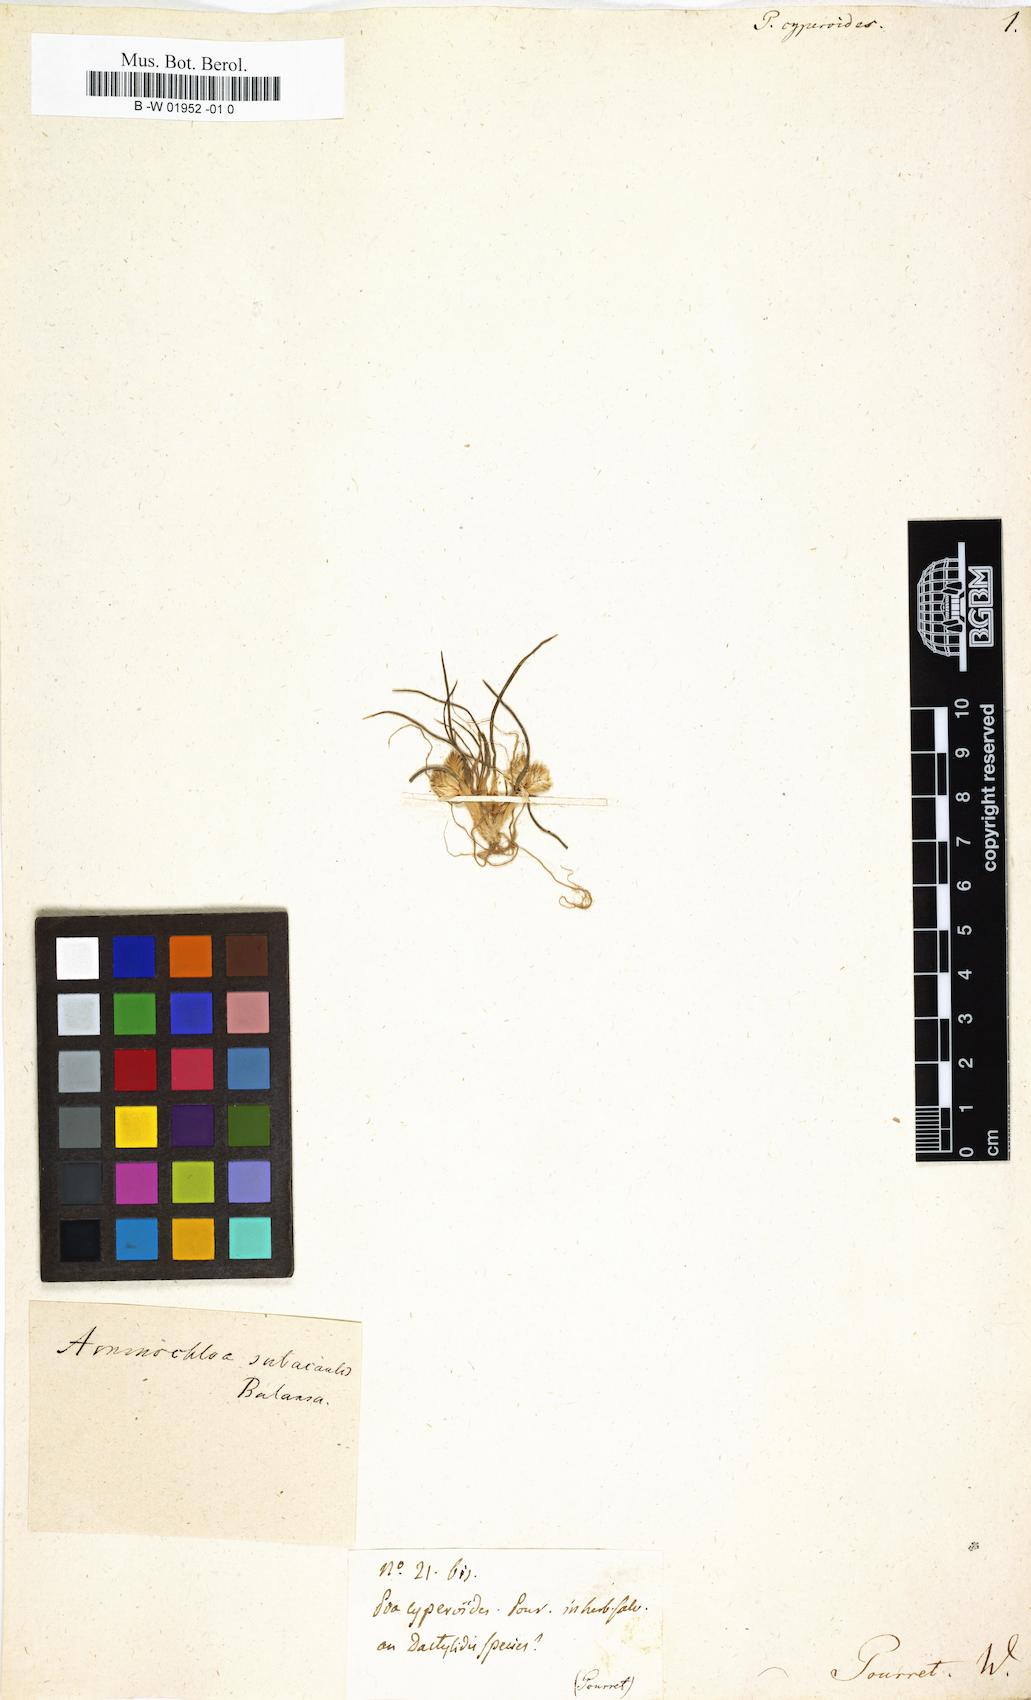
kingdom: Plantae
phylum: Tracheophyta
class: Liliopsida
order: Poales
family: Poaceae
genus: Cladoraphis
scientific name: Cladoraphis cyperoides
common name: Bristly lovegrass
